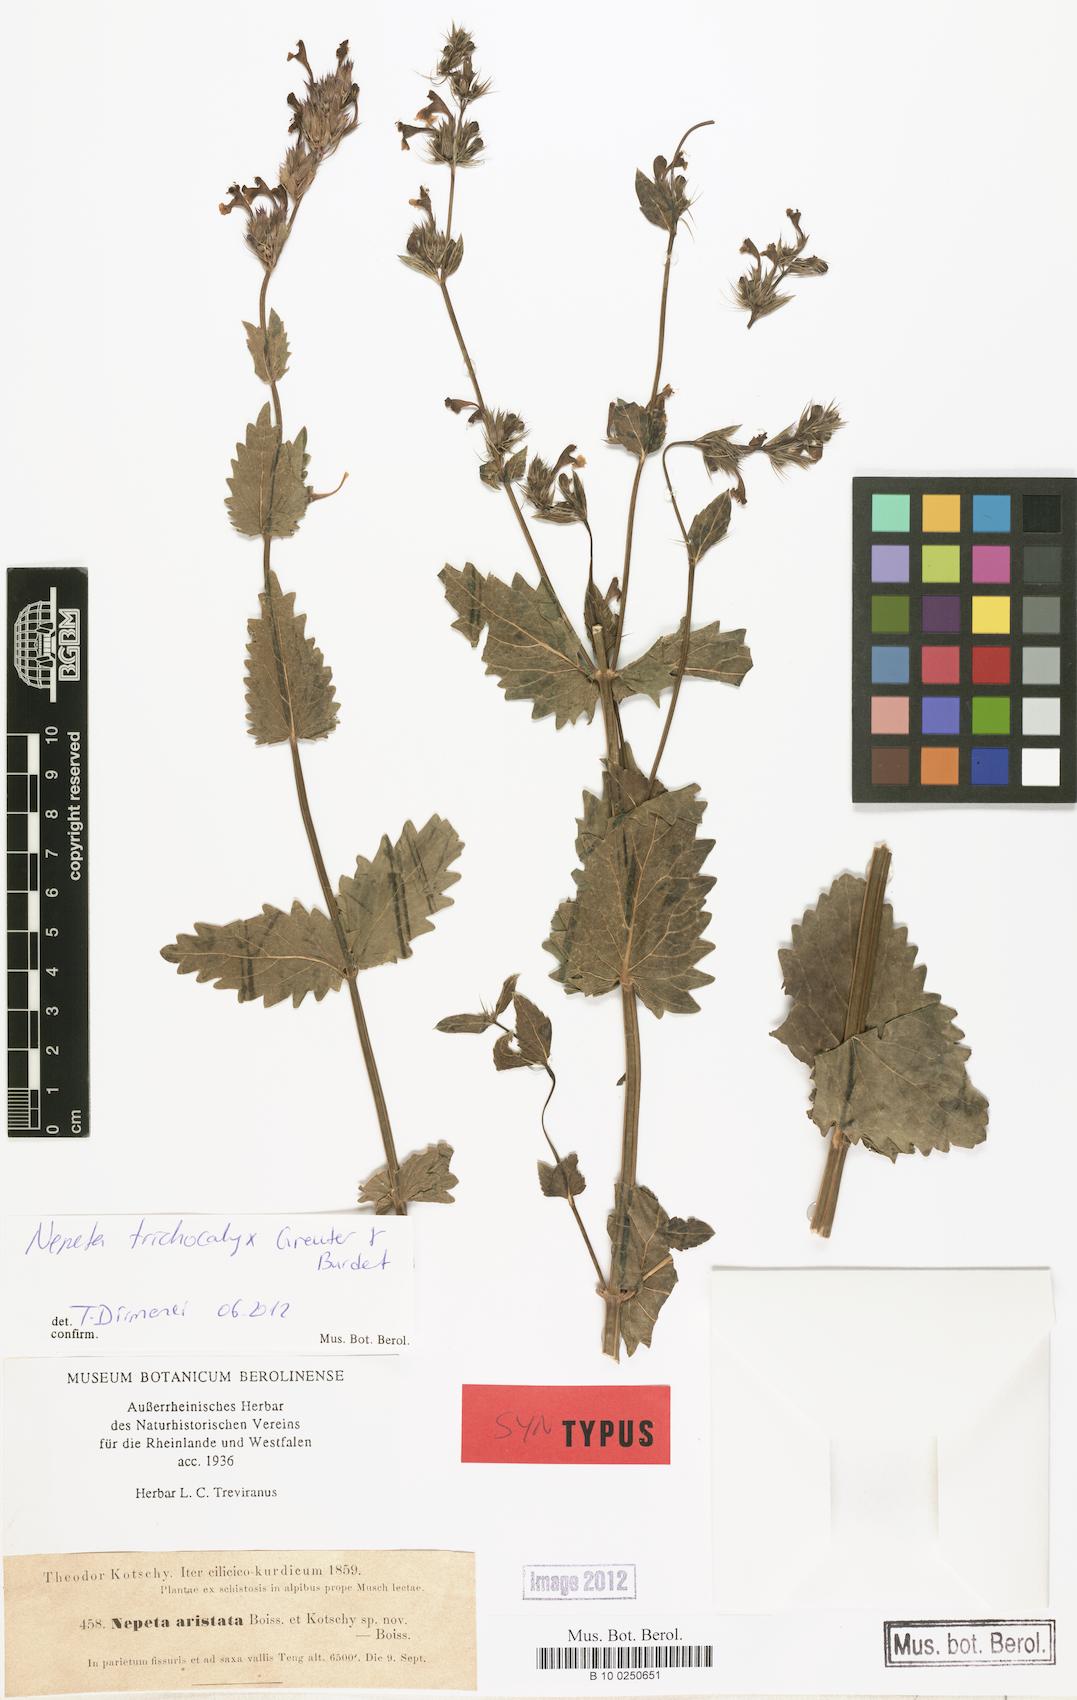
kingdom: Plantae
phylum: Tracheophyta
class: Magnoliopsida
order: Lamiales
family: Lamiaceae
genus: Nepeta
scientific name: Nepeta trichocalyx
